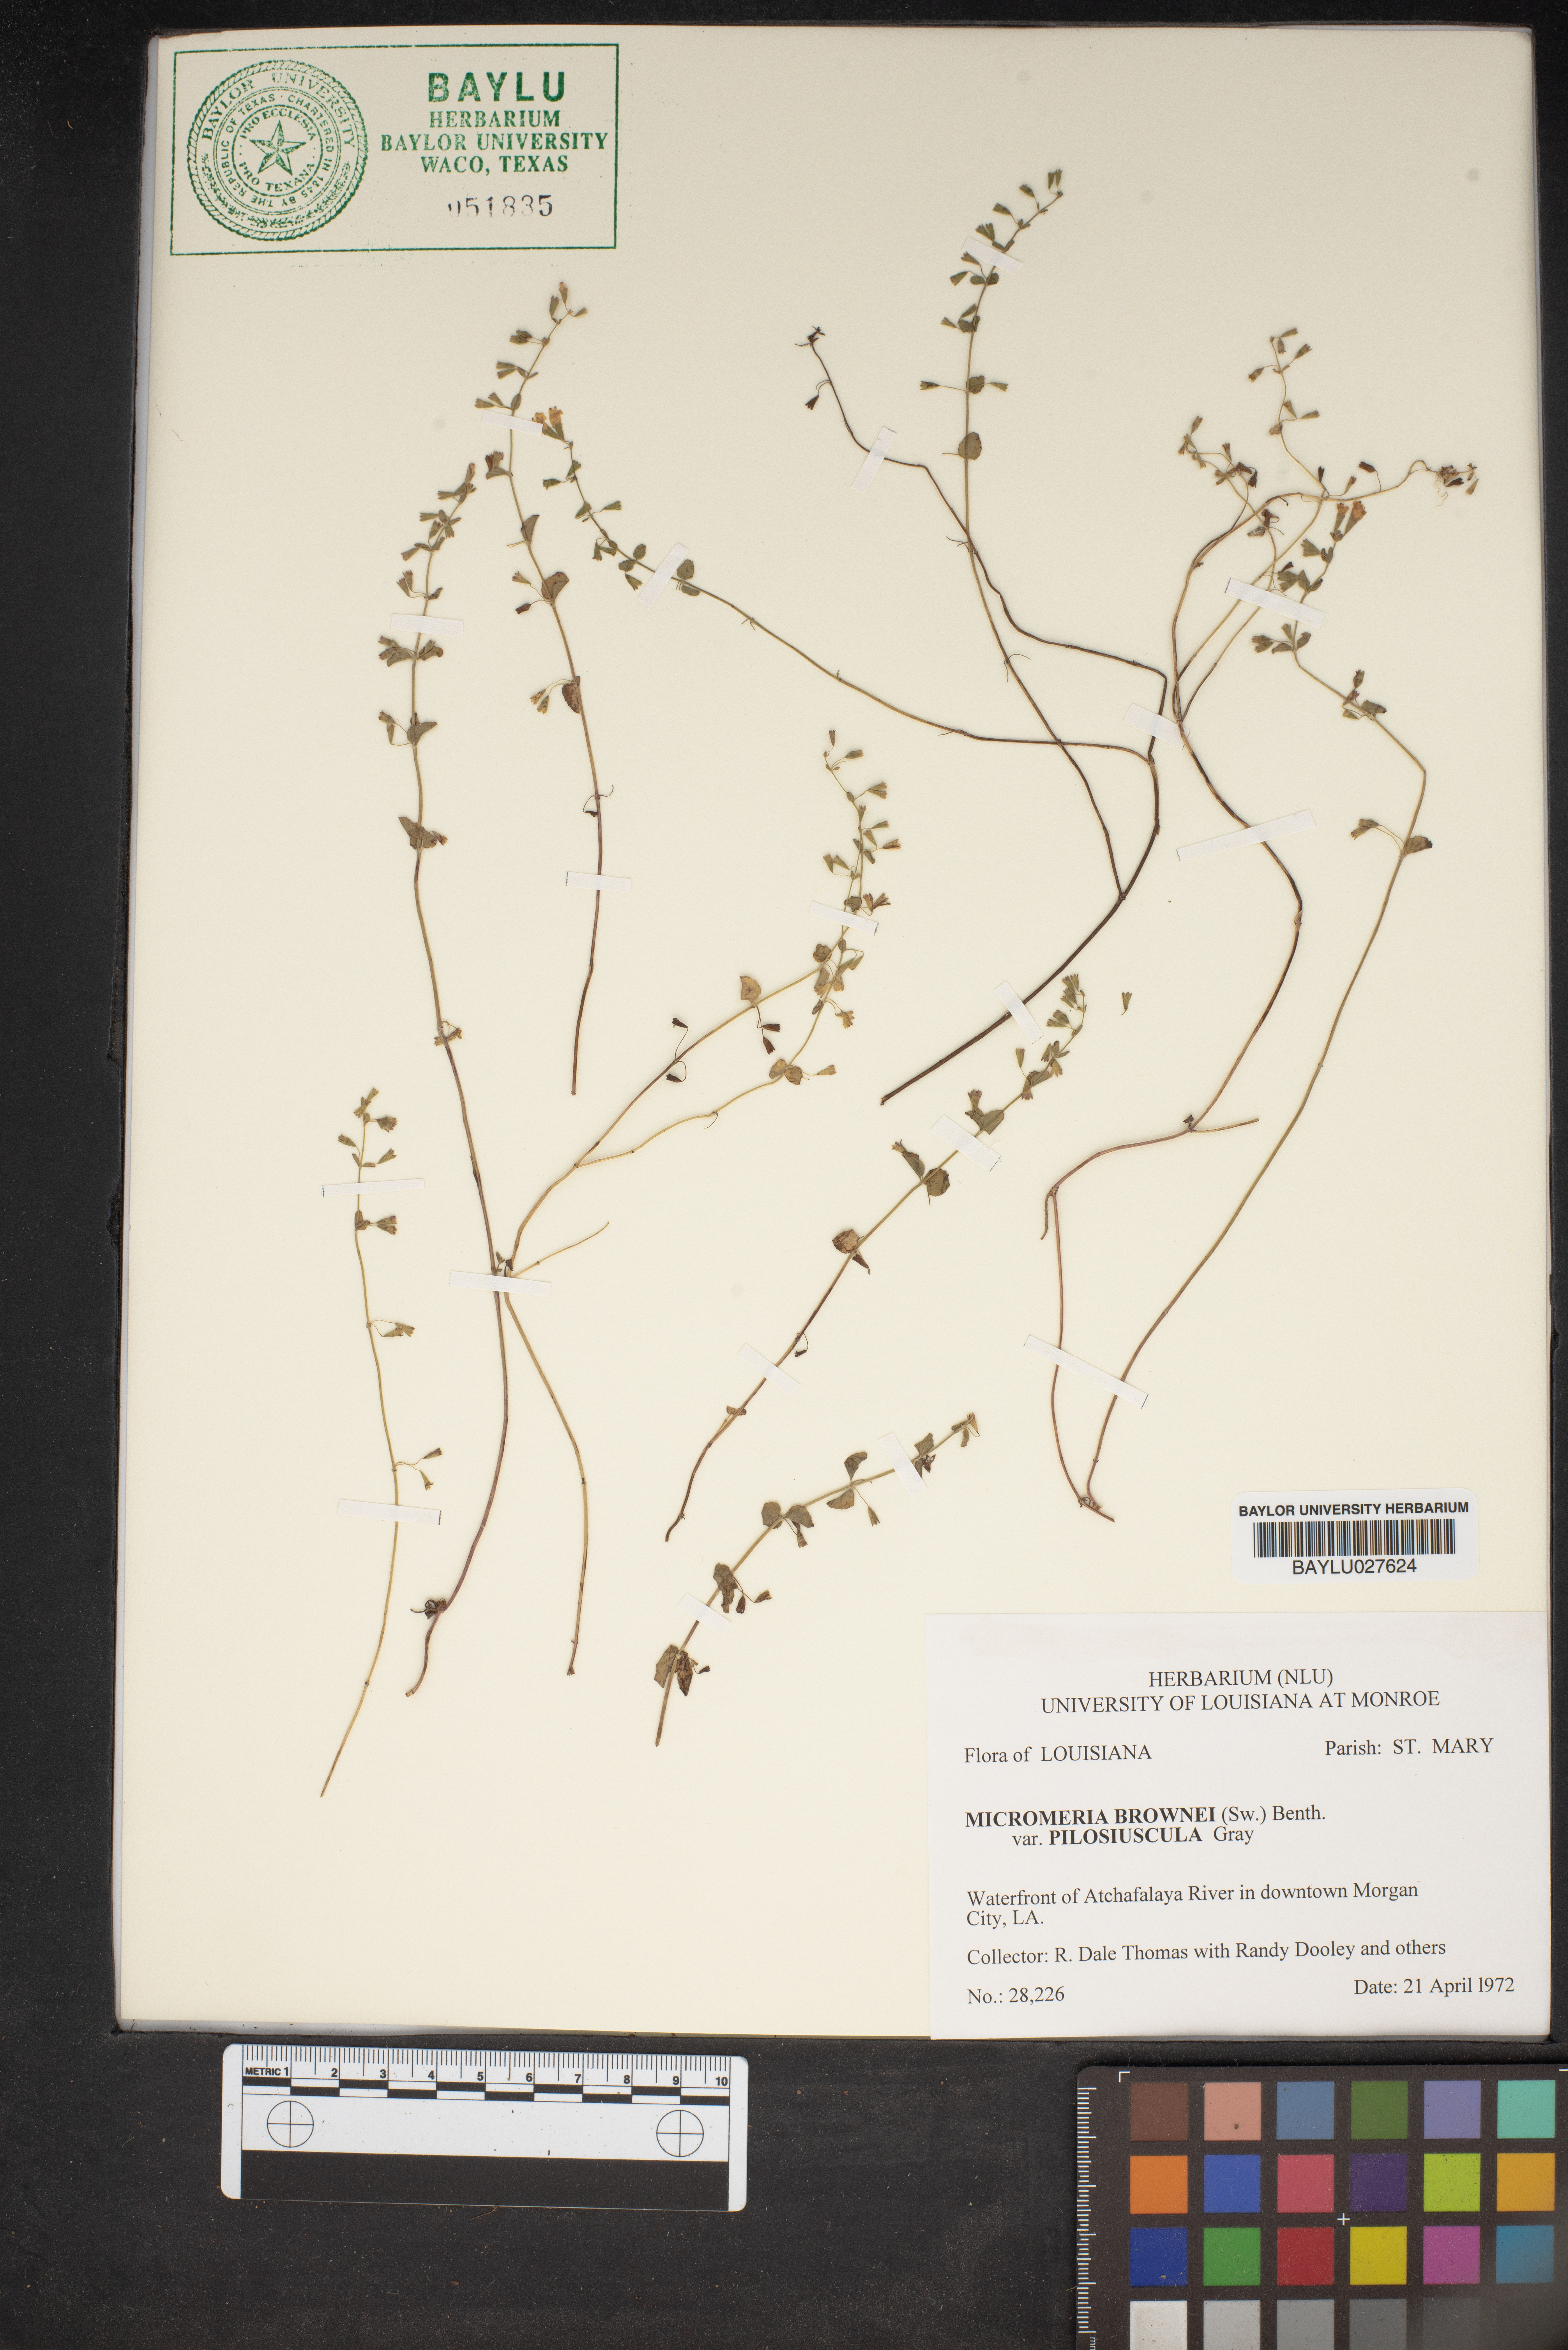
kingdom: Plantae
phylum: Tracheophyta
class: Magnoliopsida
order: Lamiales
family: Lamiaceae
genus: Clinopodium
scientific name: Clinopodium brownei
